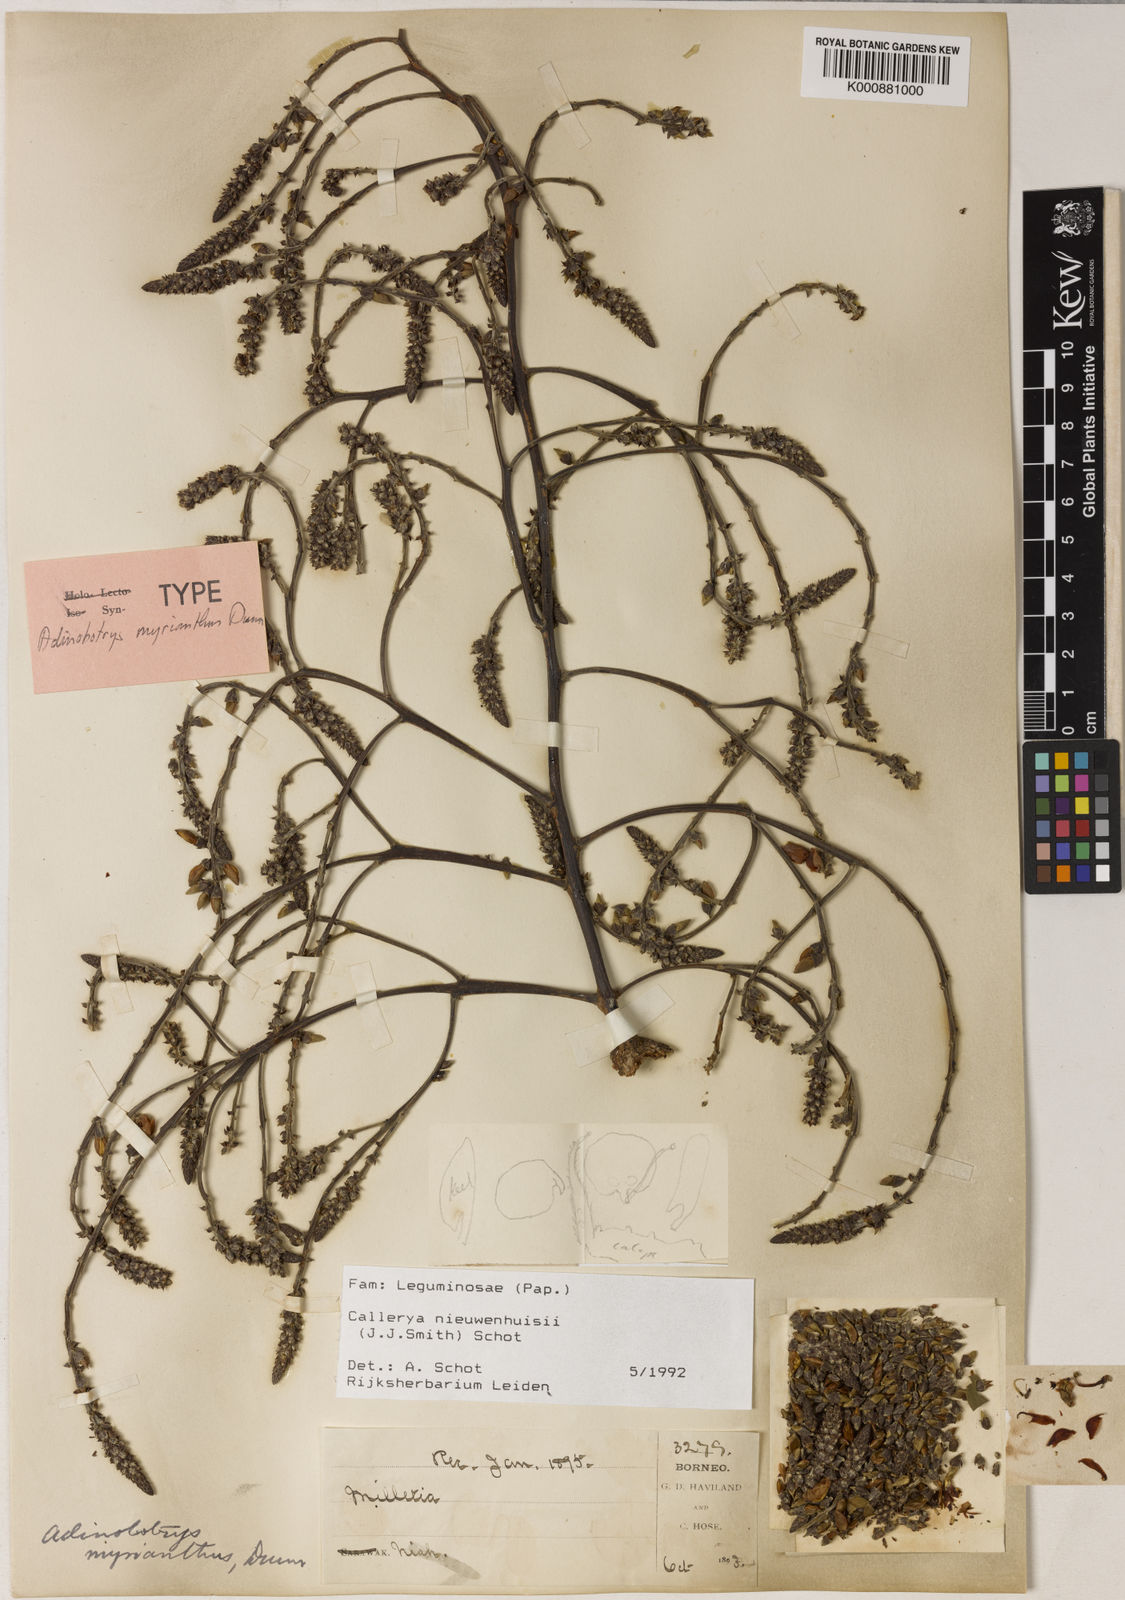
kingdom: Plantae
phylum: Tracheophyta
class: Magnoliopsida
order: Fabales
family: Fabaceae
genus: Whitfordiodendron
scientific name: Whitfordiodendron nieuwenhuisii
